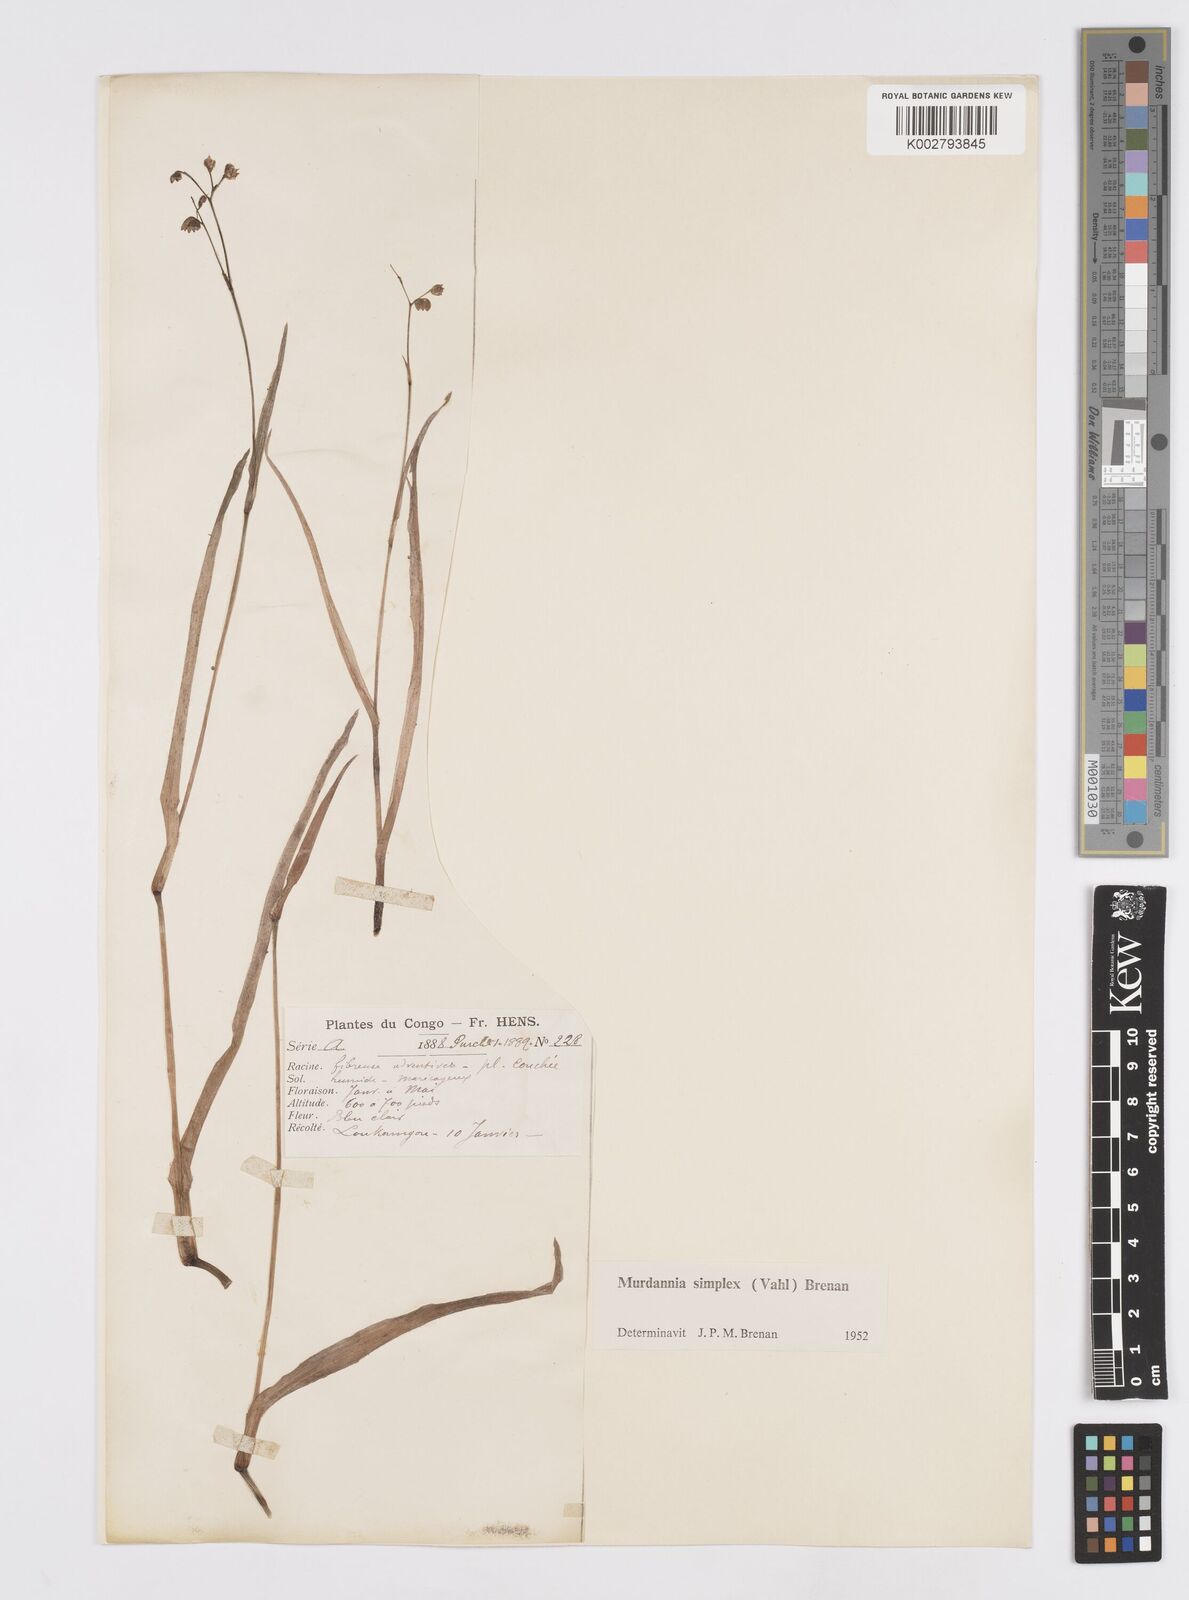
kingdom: Plantae
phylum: Tracheophyta
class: Liliopsida
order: Commelinales
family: Commelinaceae
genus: Murdannia
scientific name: Murdannia simplex
